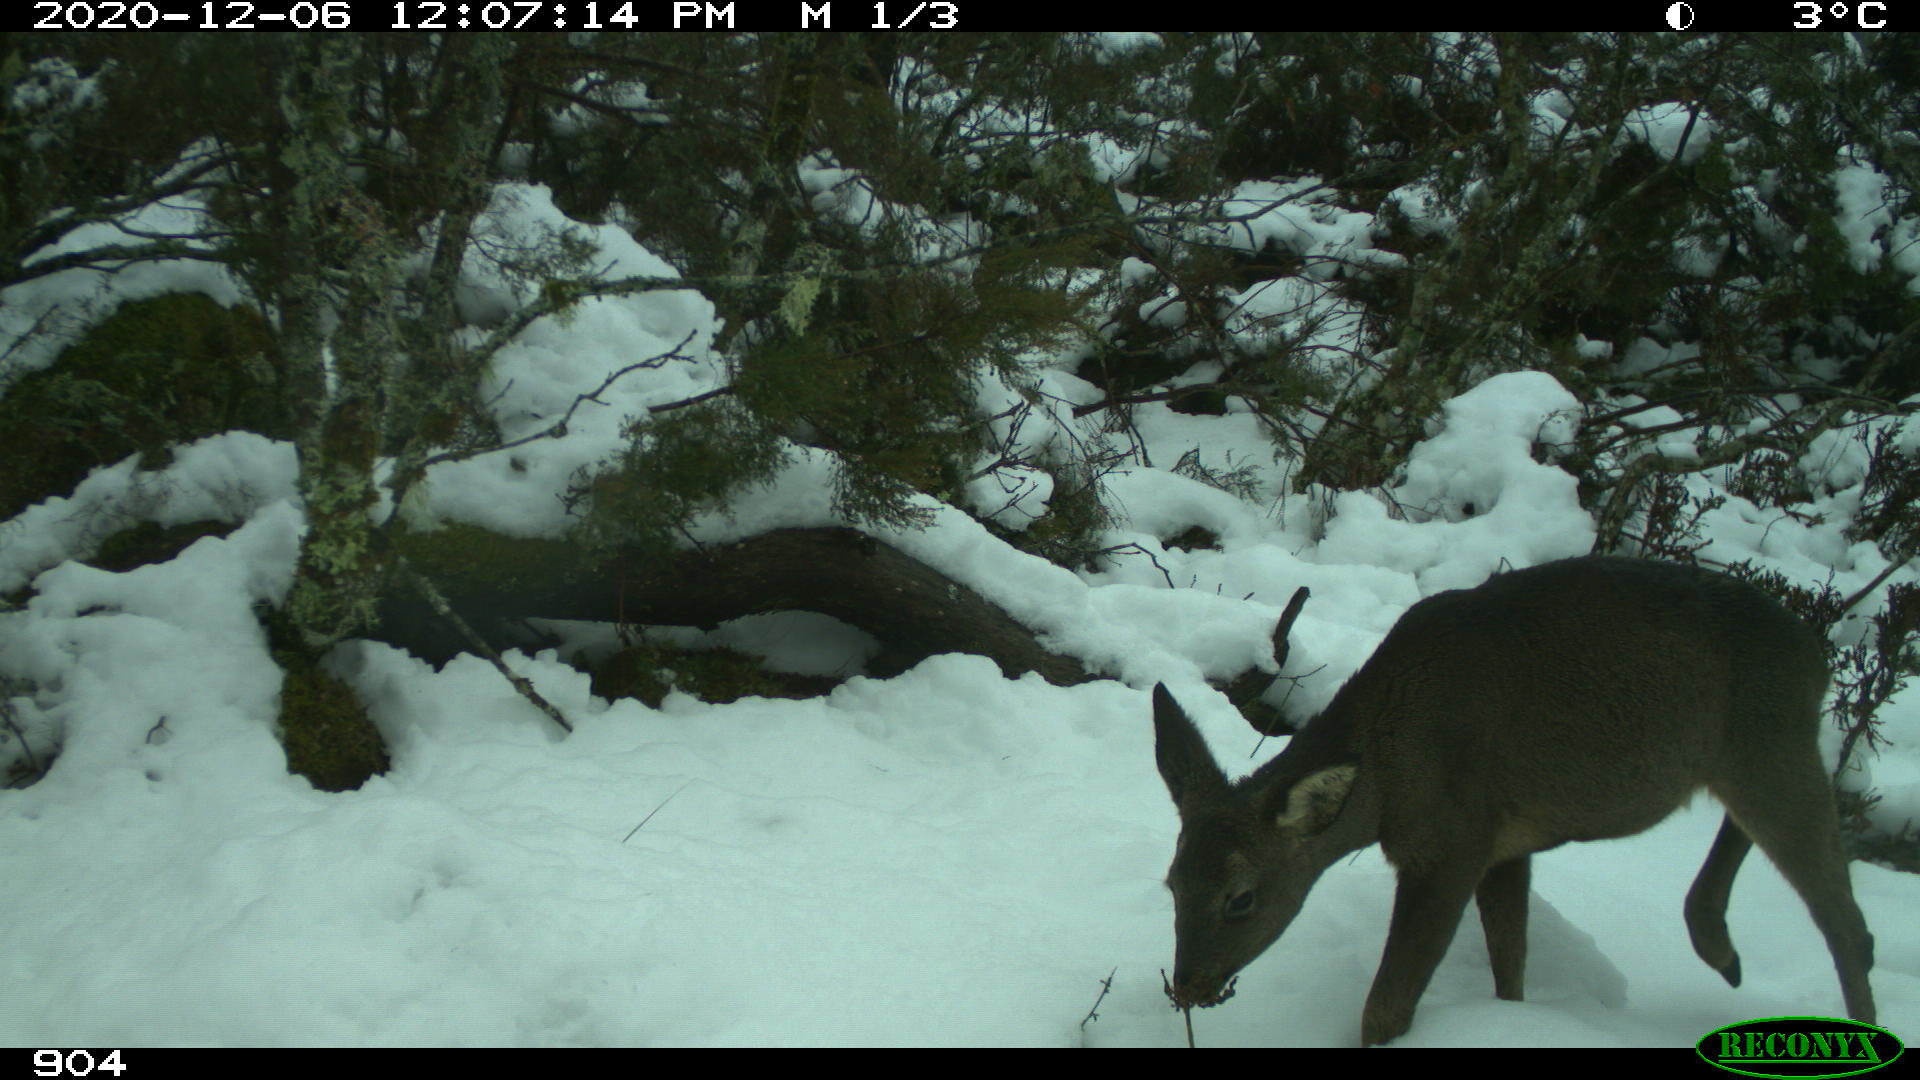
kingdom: Animalia
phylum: Chordata
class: Mammalia
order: Artiodactyla
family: Cervidae
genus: Capreolus
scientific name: Capreolus capreolus
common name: Western roe deer
